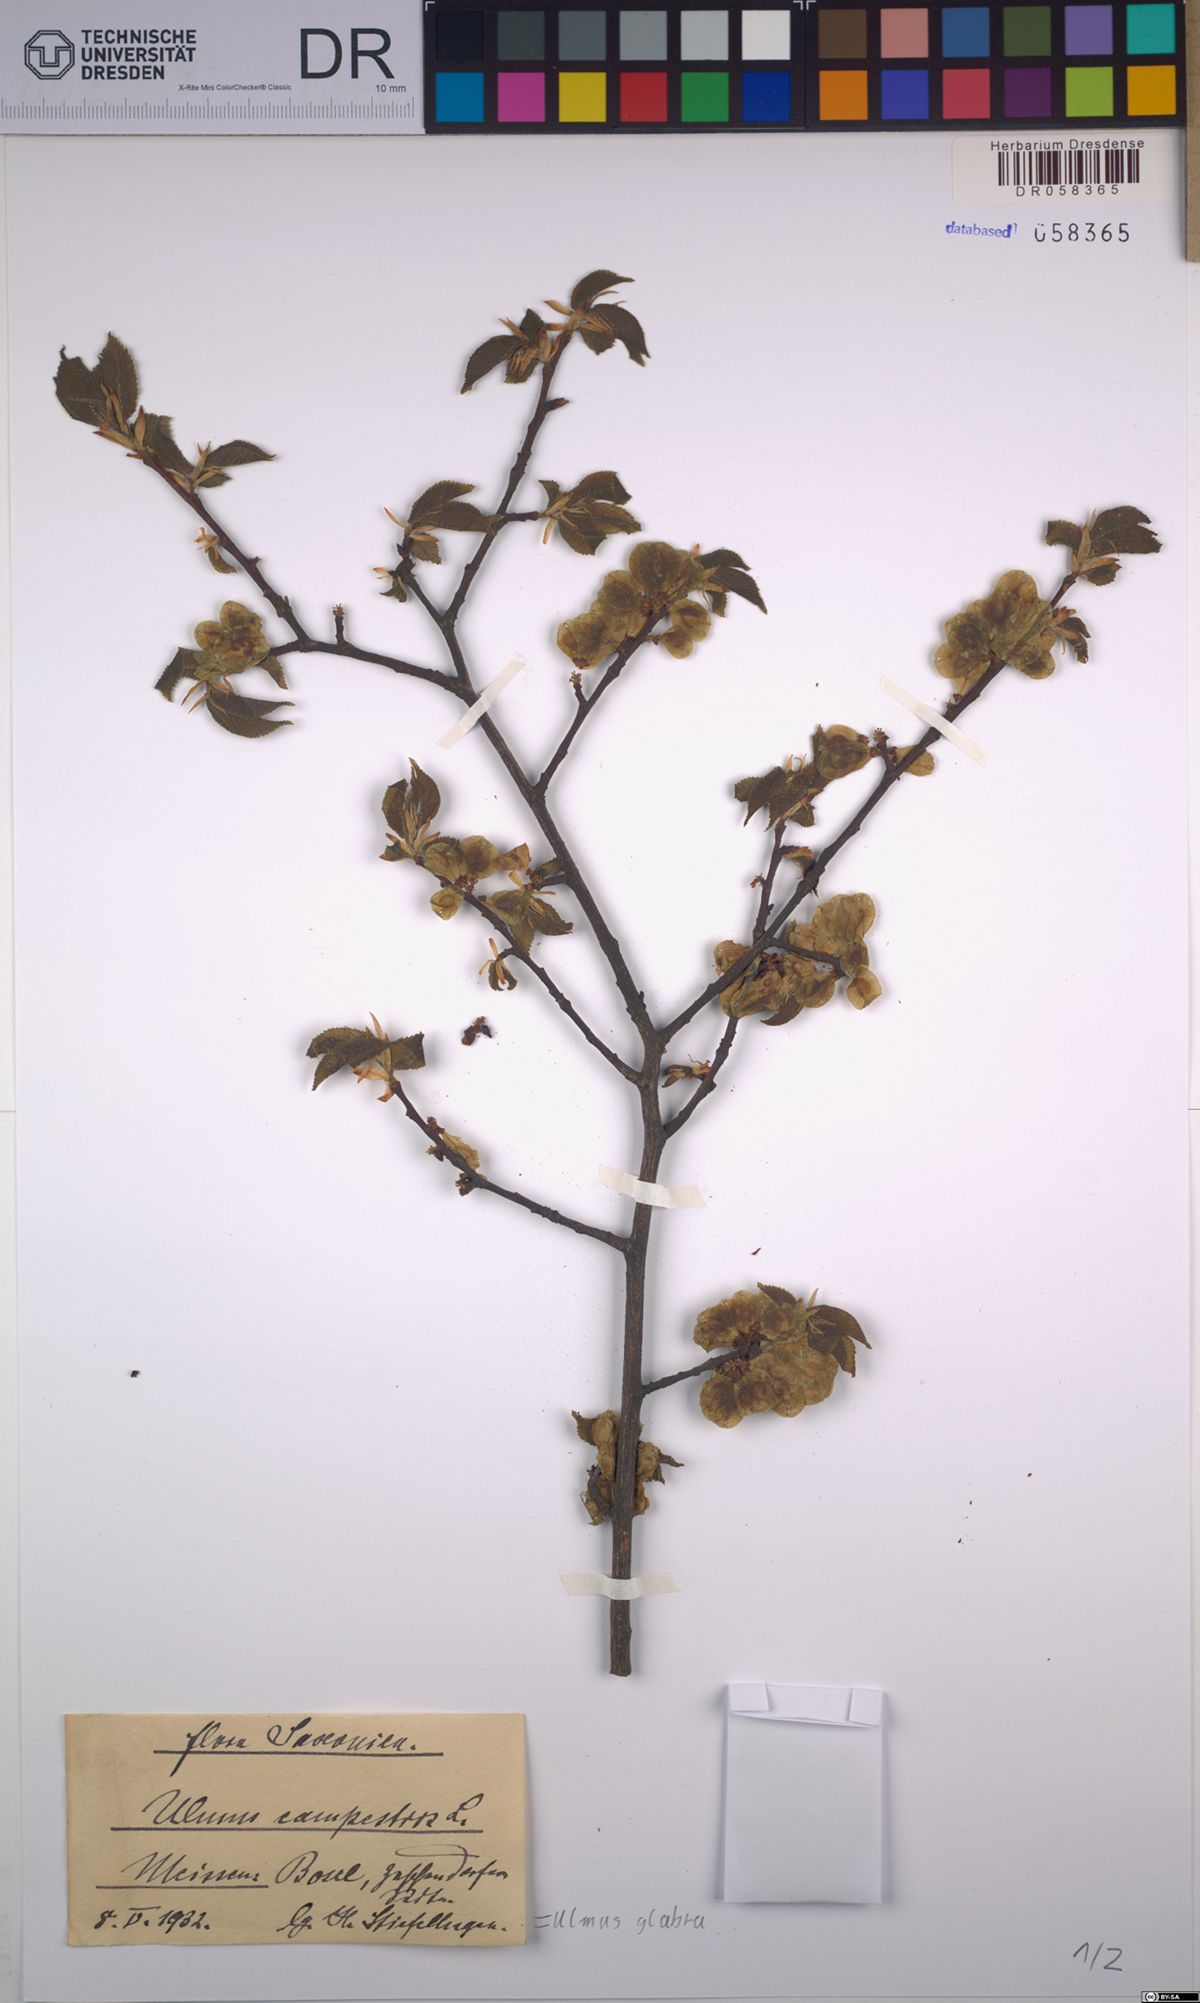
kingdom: Plantae
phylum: Tracheophyta
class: Magnoliopsida
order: Rosales
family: Ulmaceae
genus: Ulmus
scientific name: Ulmus glabra
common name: Wych elm
